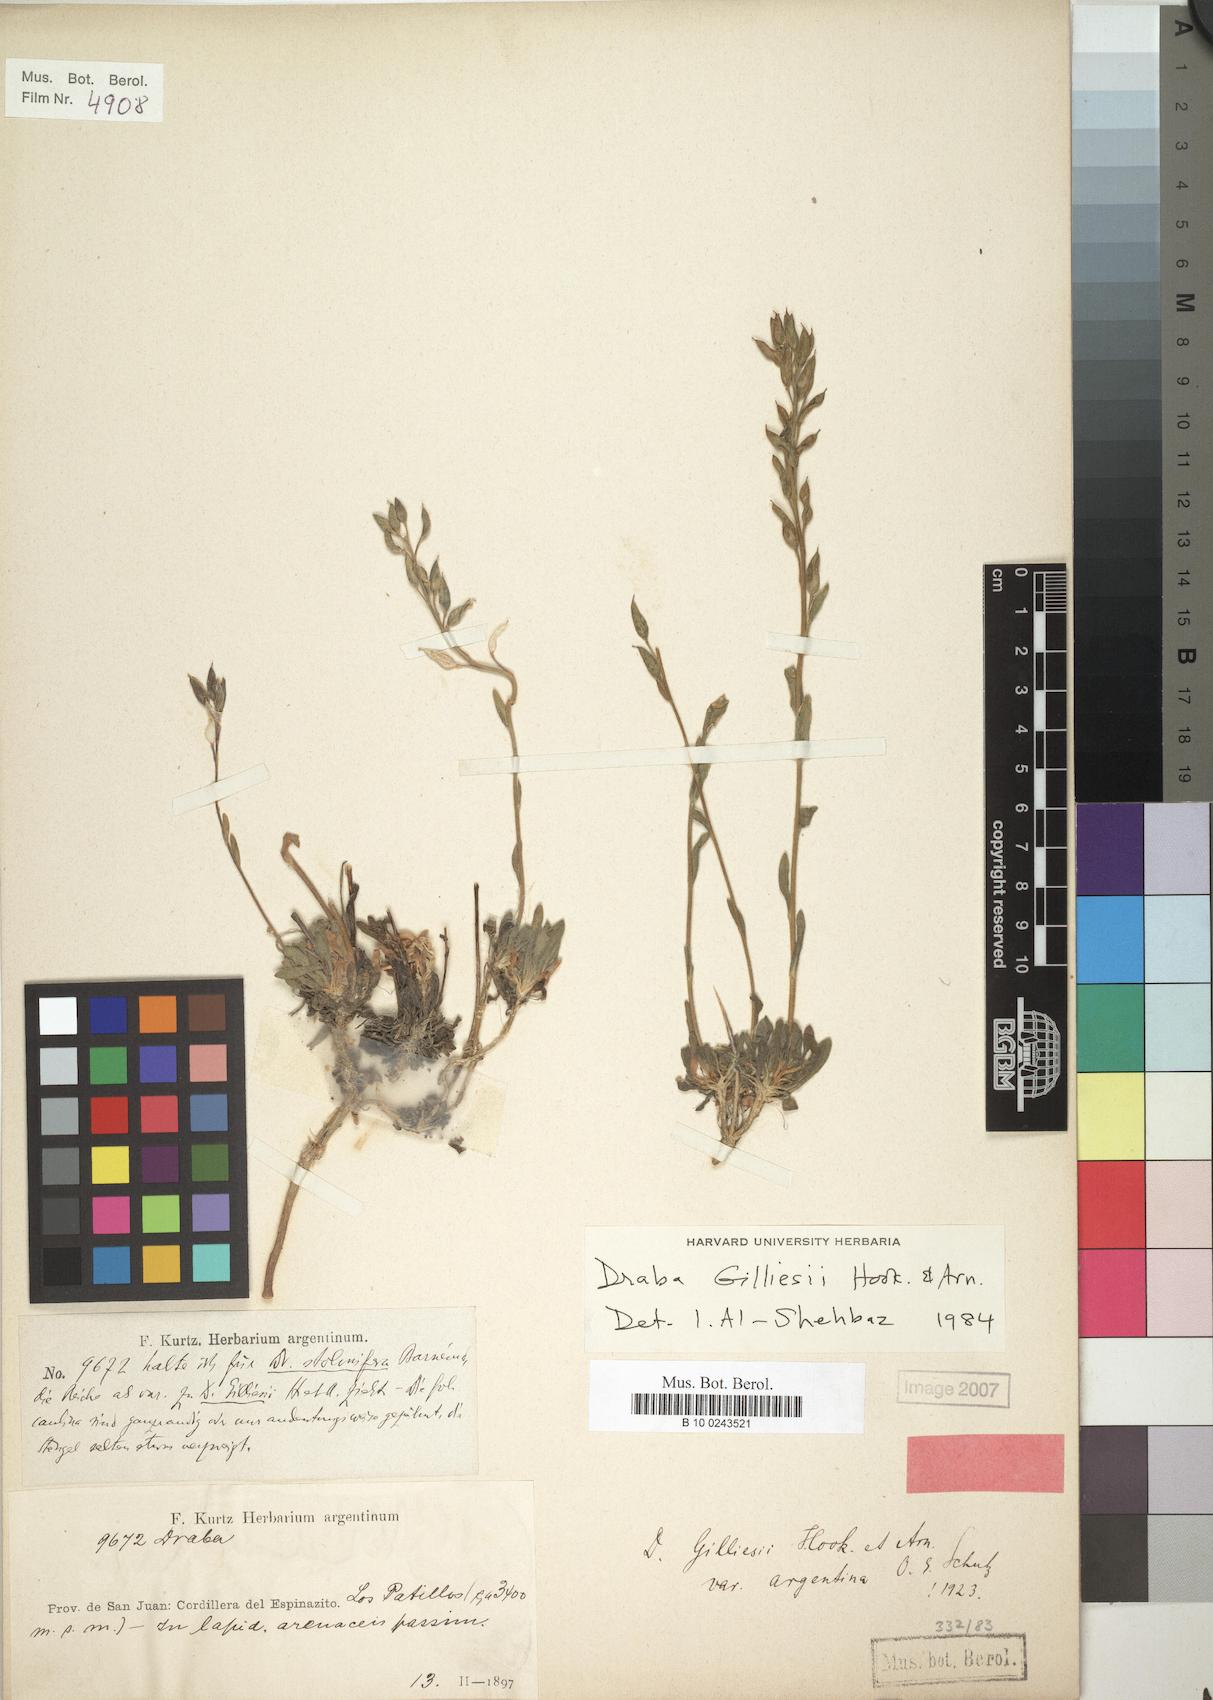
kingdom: Plantae
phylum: Tracheophyta
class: Magnoliopsida
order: Brassicales
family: Brassicaceae
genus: Draba
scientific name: Draba gilliesii
